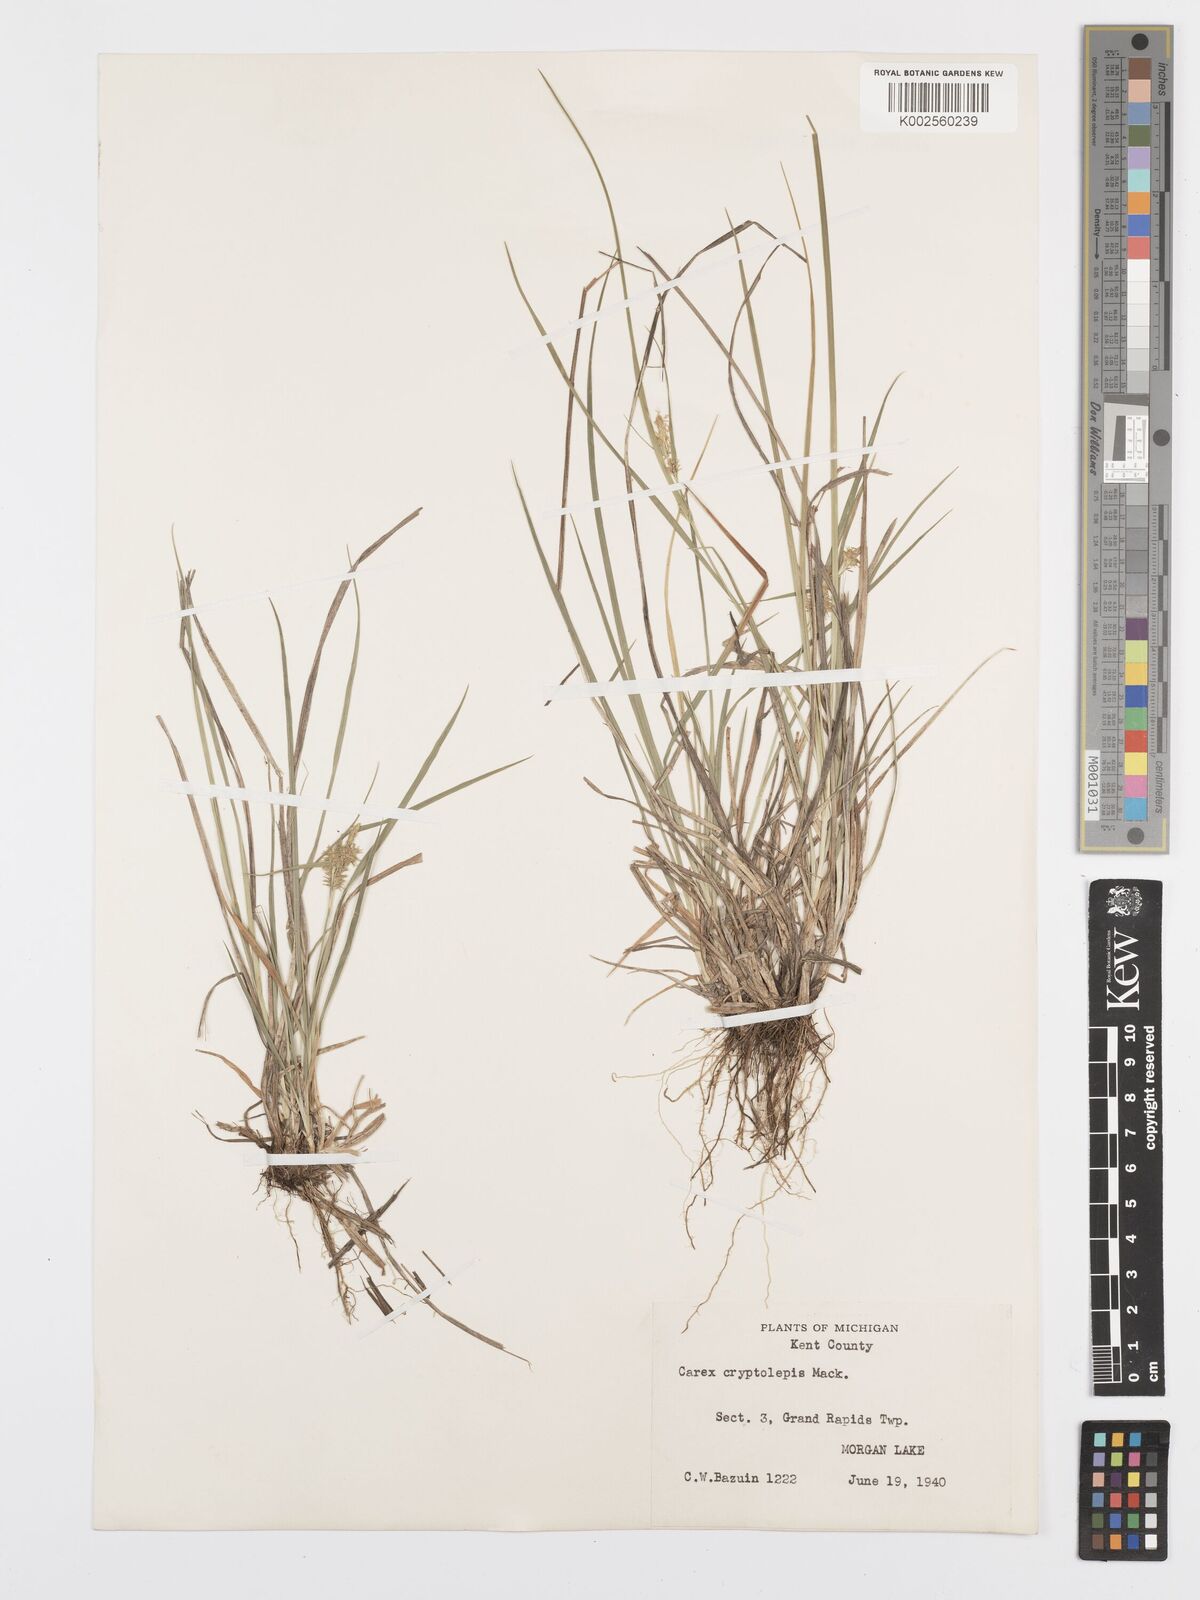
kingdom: Plantae
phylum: Tracheophyta
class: Liliopsida
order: Poales
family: Cyperaceae
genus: Carex
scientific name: Carex cryptolepis
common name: Northeastern sedge
